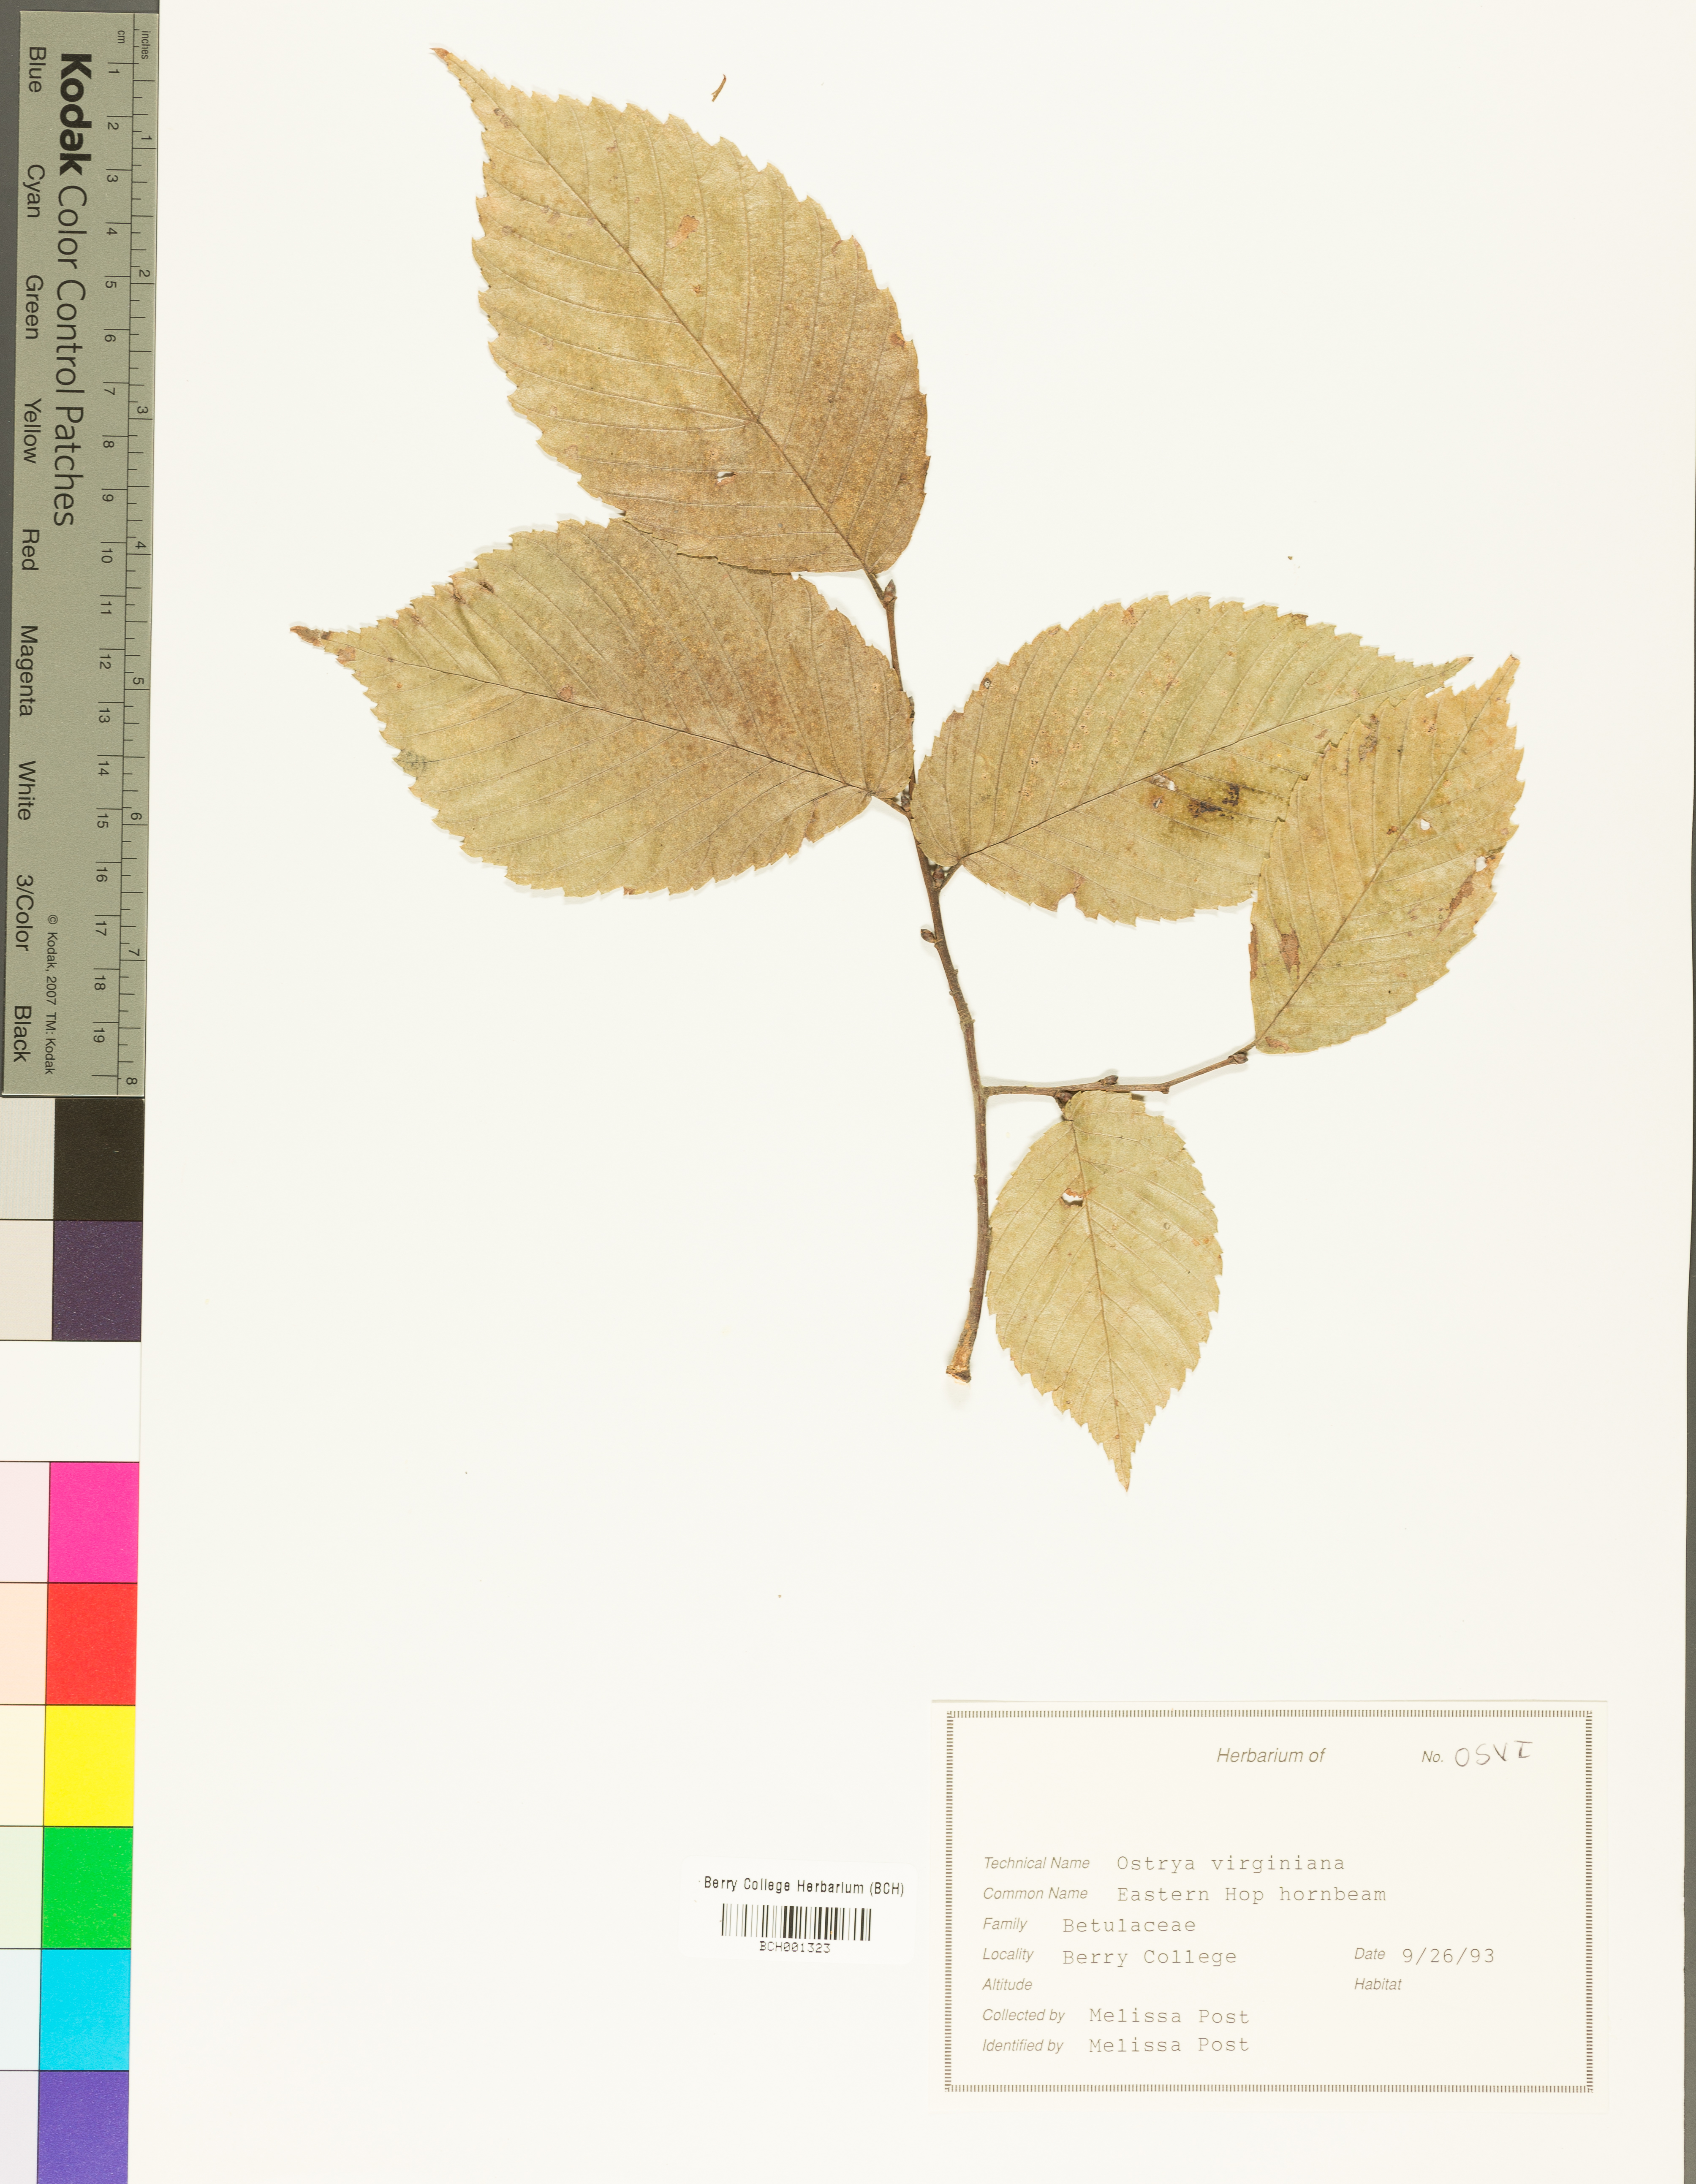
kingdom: Plantae
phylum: Tracheophyta
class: Magnoliopsida
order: Fagales
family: Betulaceae
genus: Ostrya
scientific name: Ostrya virginiana
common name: Ironwood
